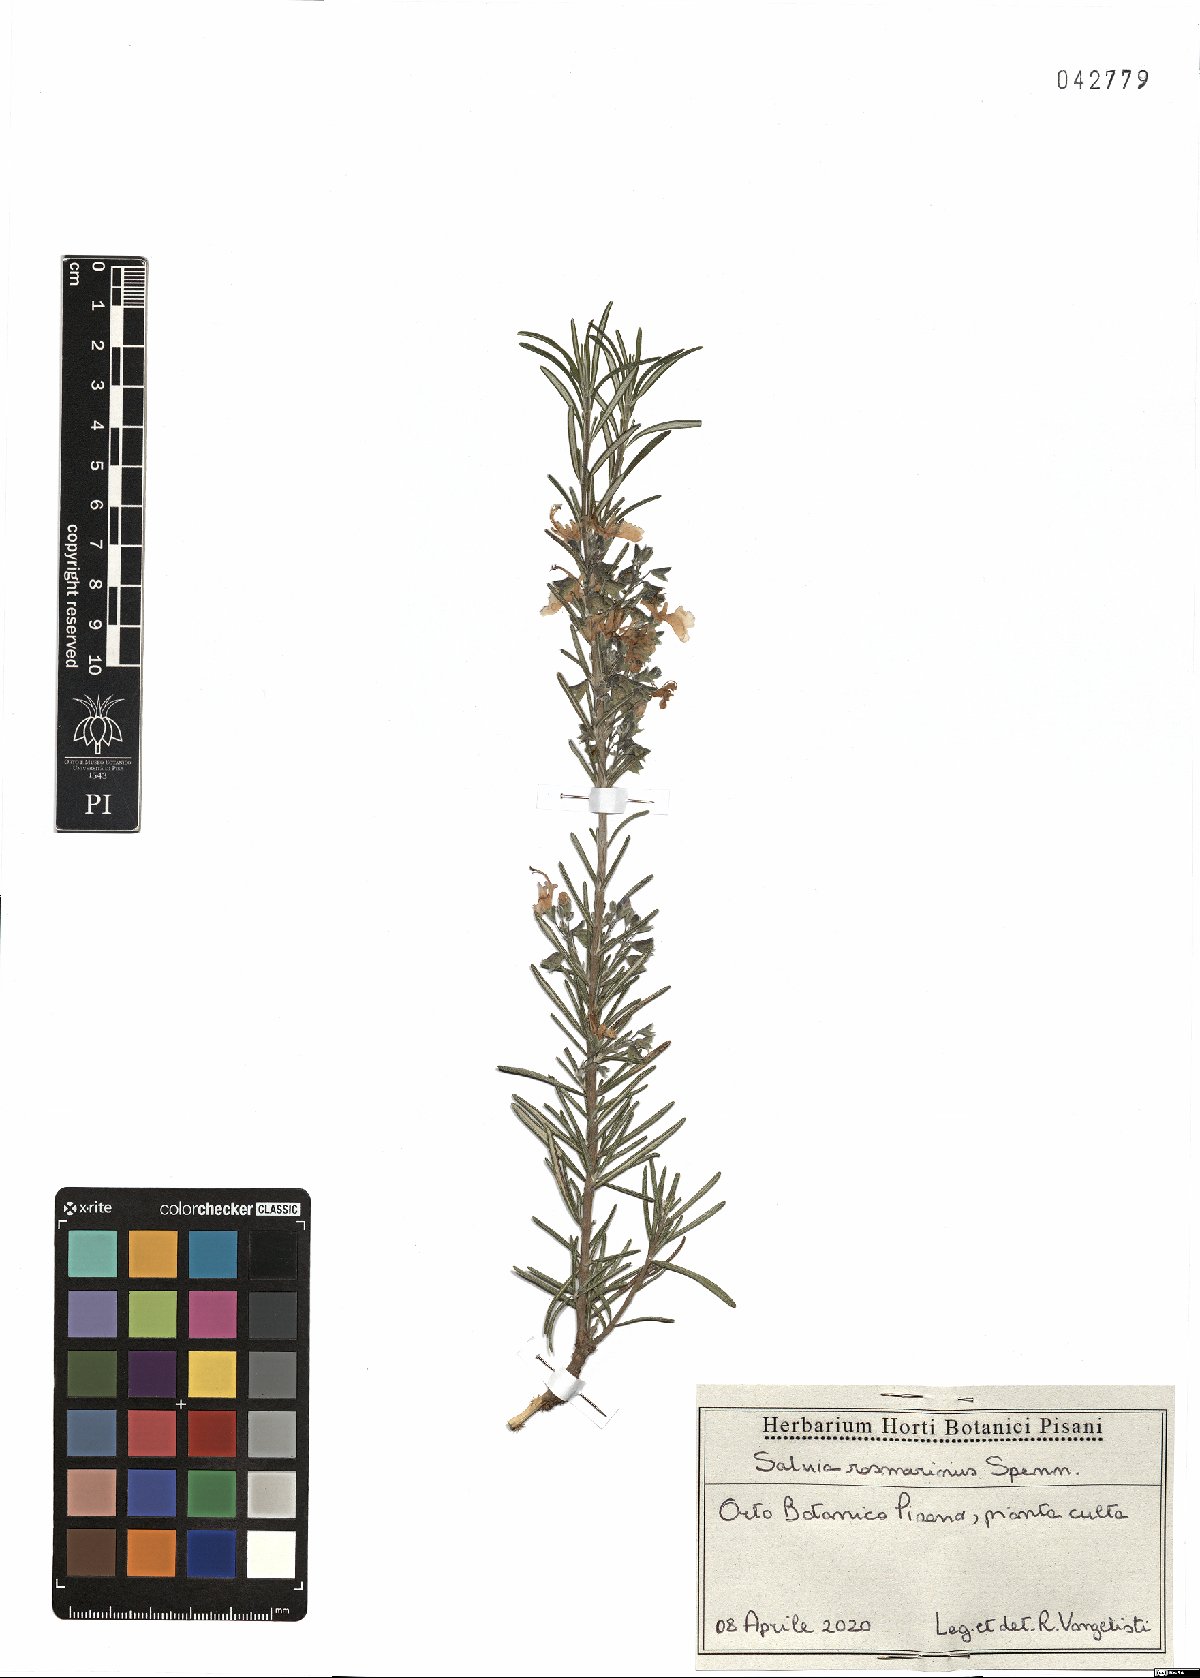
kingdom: Plantae
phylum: Tracheophyta
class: Magnoliopsida
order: Lamiales
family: Lamiaceae
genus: Salvia
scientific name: Salvia rosmarinus
